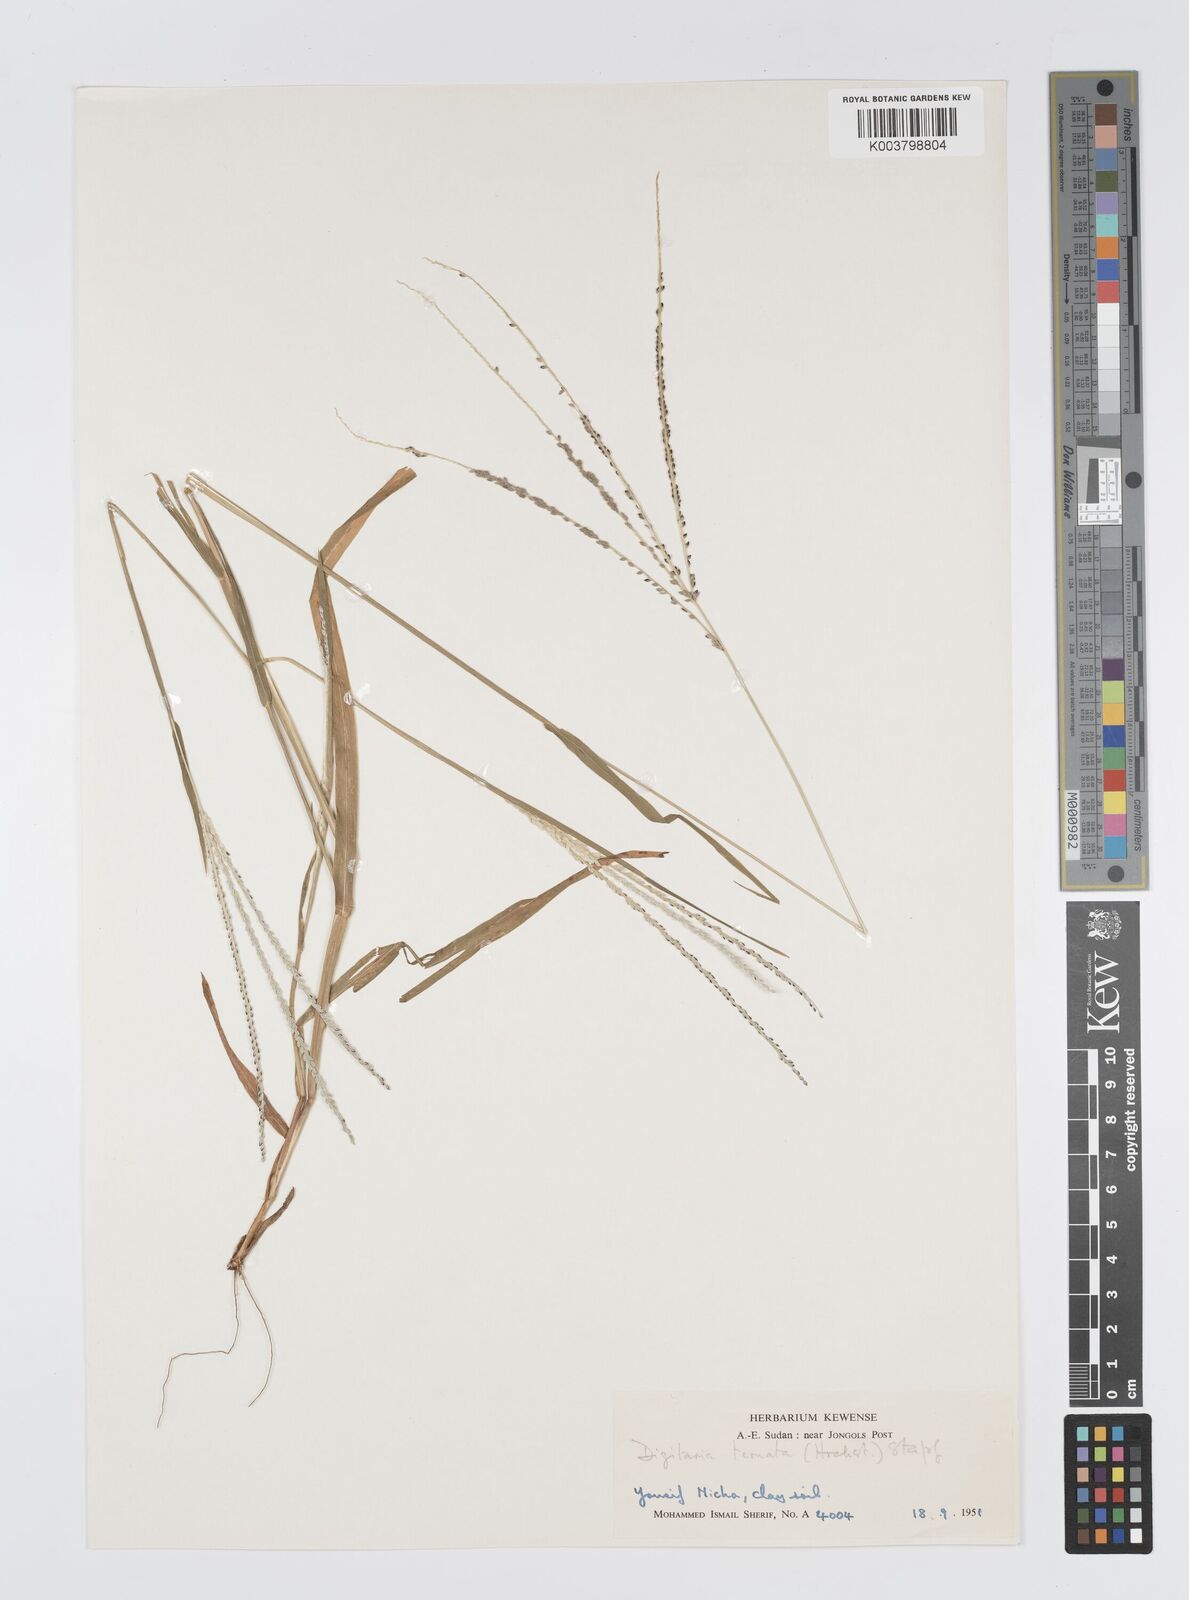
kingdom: Plantae
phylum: Tracheophyta
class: Liliopsida
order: Poales
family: Poaceae
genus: Digitaria
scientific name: Digitaria ternata
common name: Blackseed crabgrass
